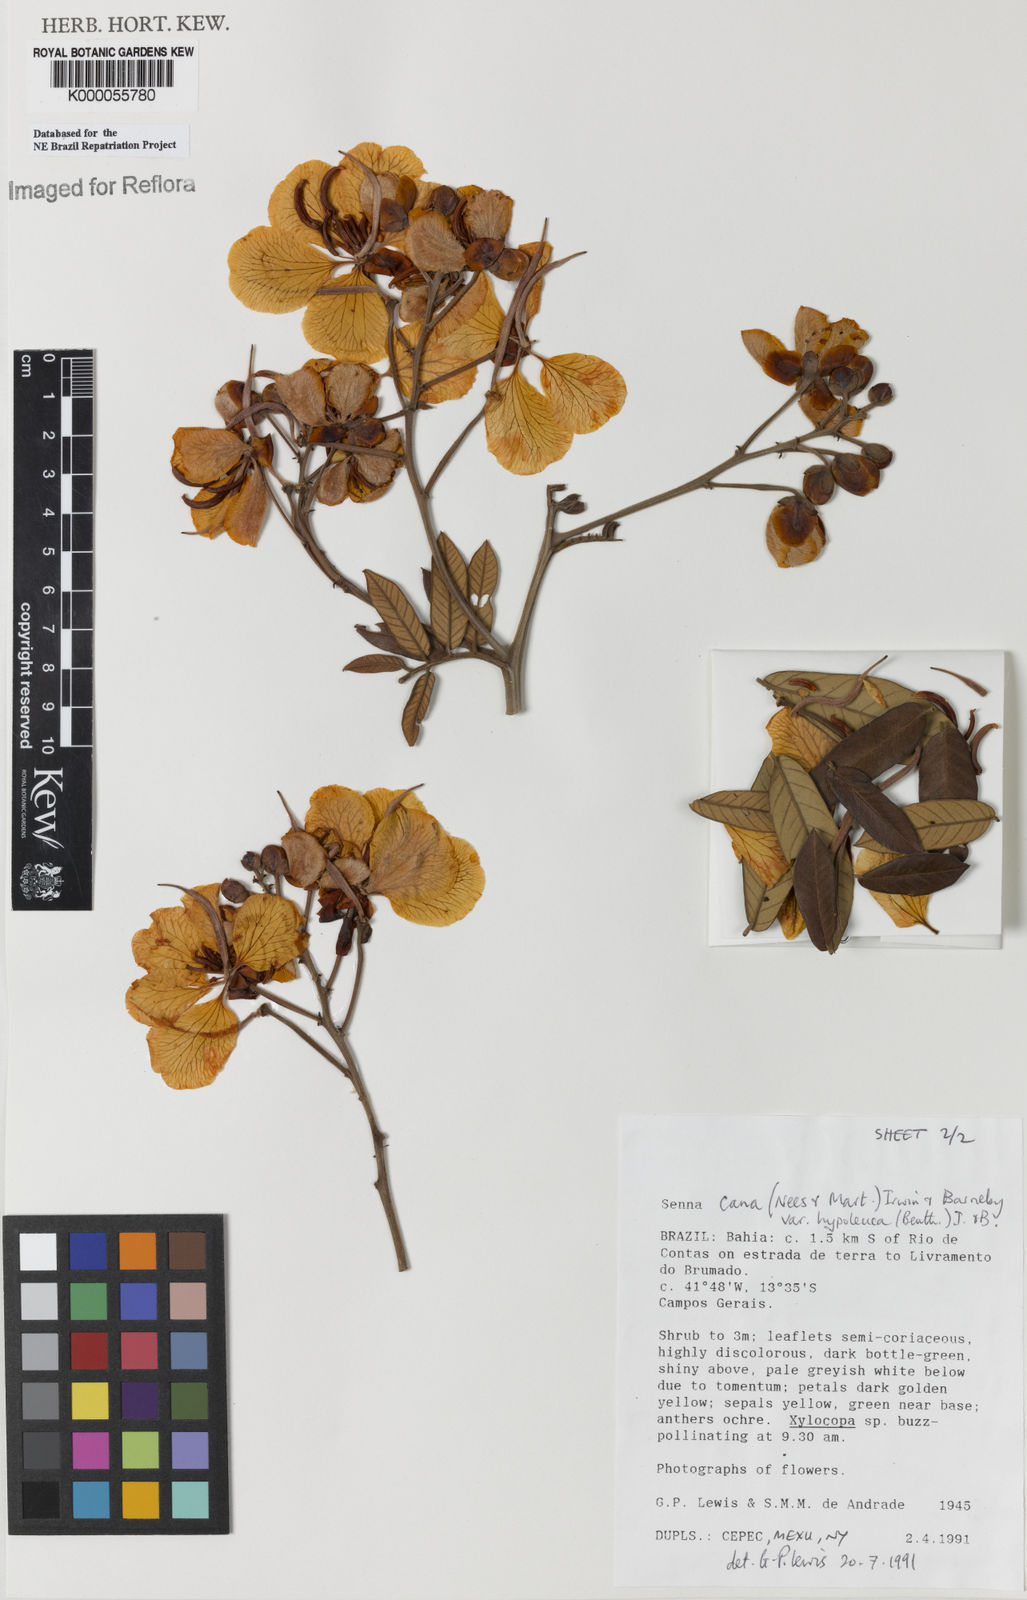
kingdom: Plantae
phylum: Tracheophyta
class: Magnoliopsida
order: Fabales
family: Fabaceae
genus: Senna
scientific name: Senna cana
